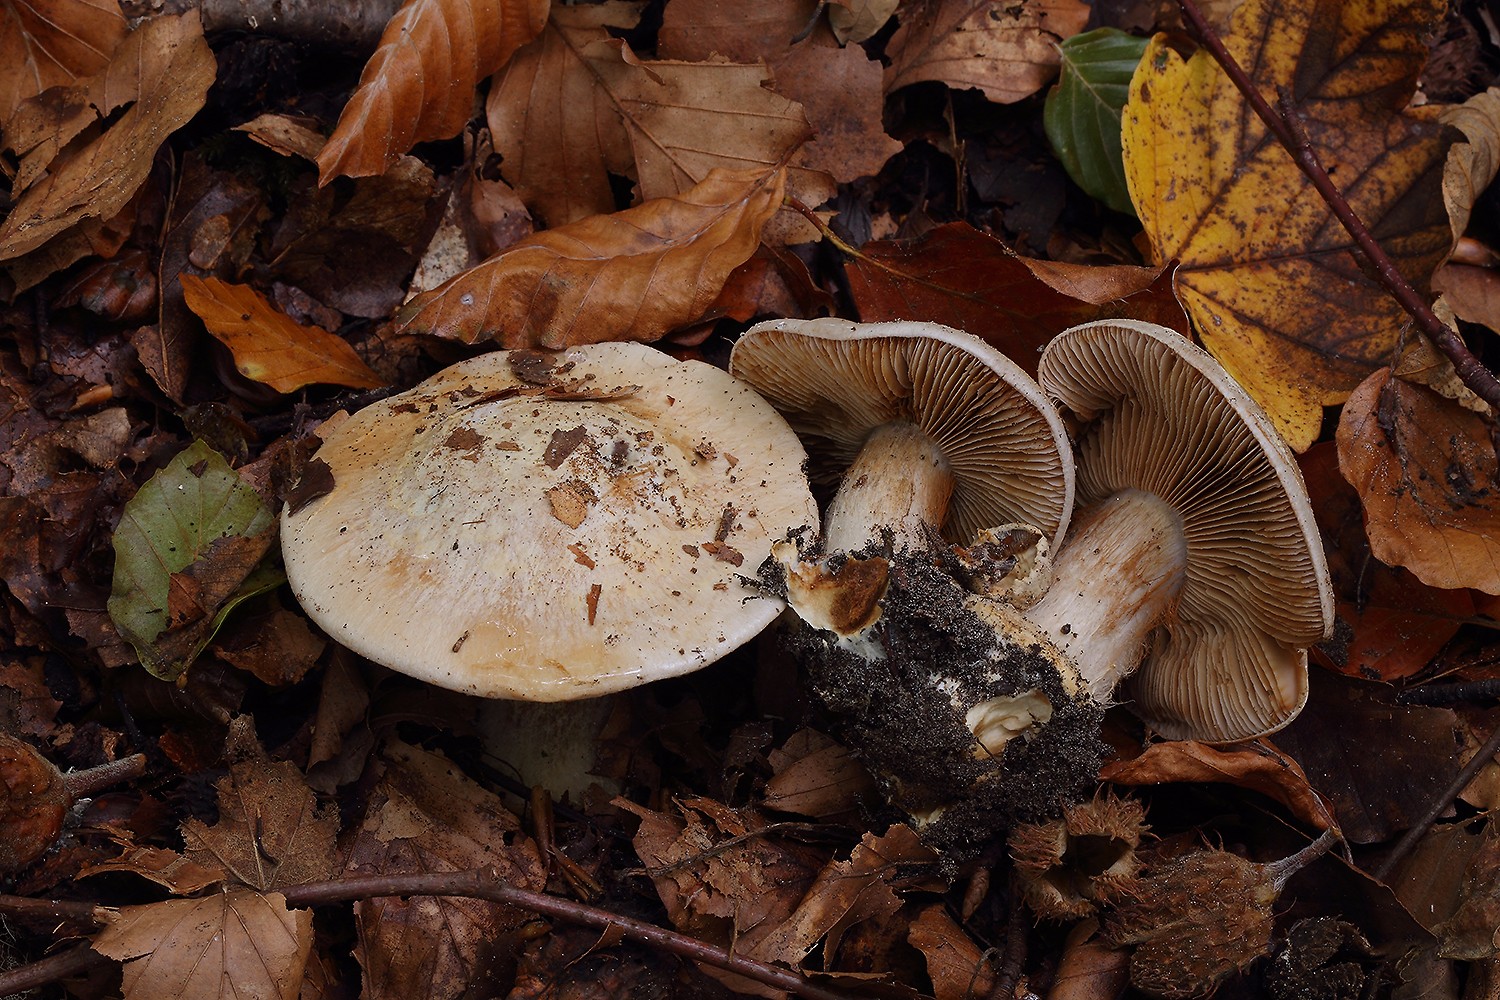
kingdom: Fungi
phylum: Basidiomycota
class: Agaricomycetes
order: Agaricales
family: Cortinariaceae
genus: Cortinarius
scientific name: Cortinarius foetens
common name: stribet slørhat
